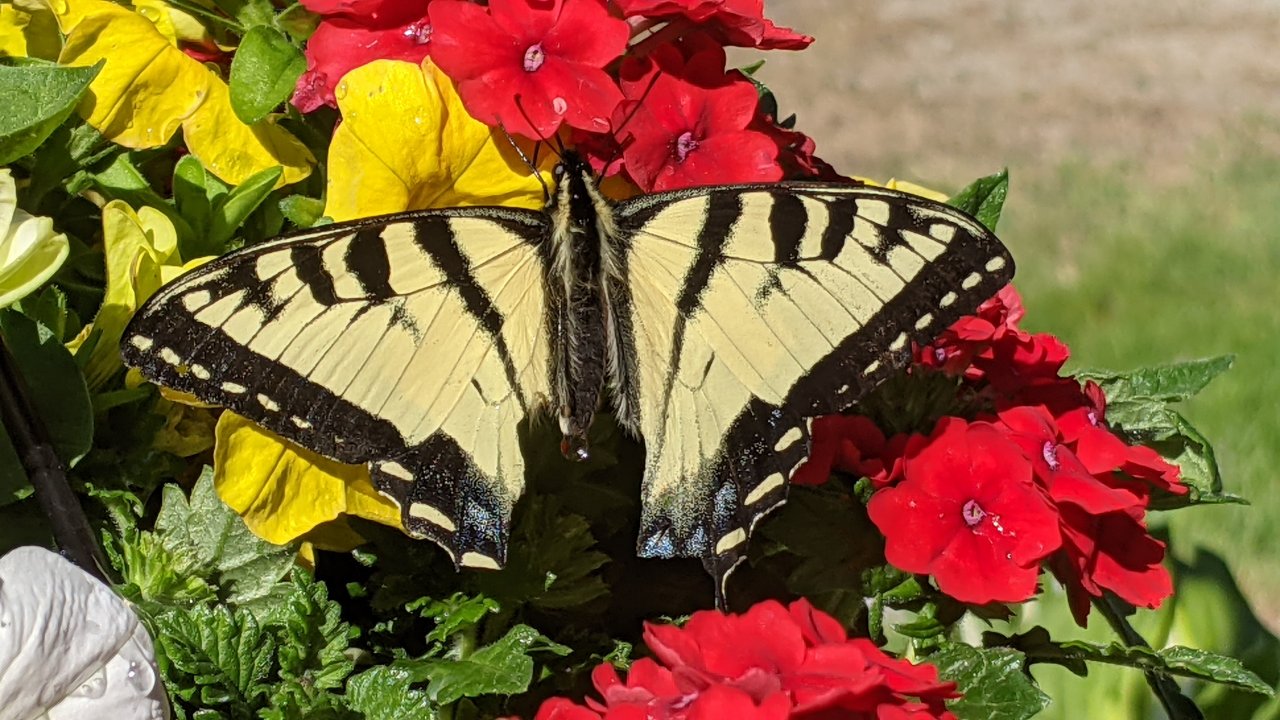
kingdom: Animalia
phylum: Arthropoda
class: Insecta
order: Lepidoptera
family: Papilionidae
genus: Pterourus
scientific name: Pterourus canadensis
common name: Canadian Tiger Swallowtail
